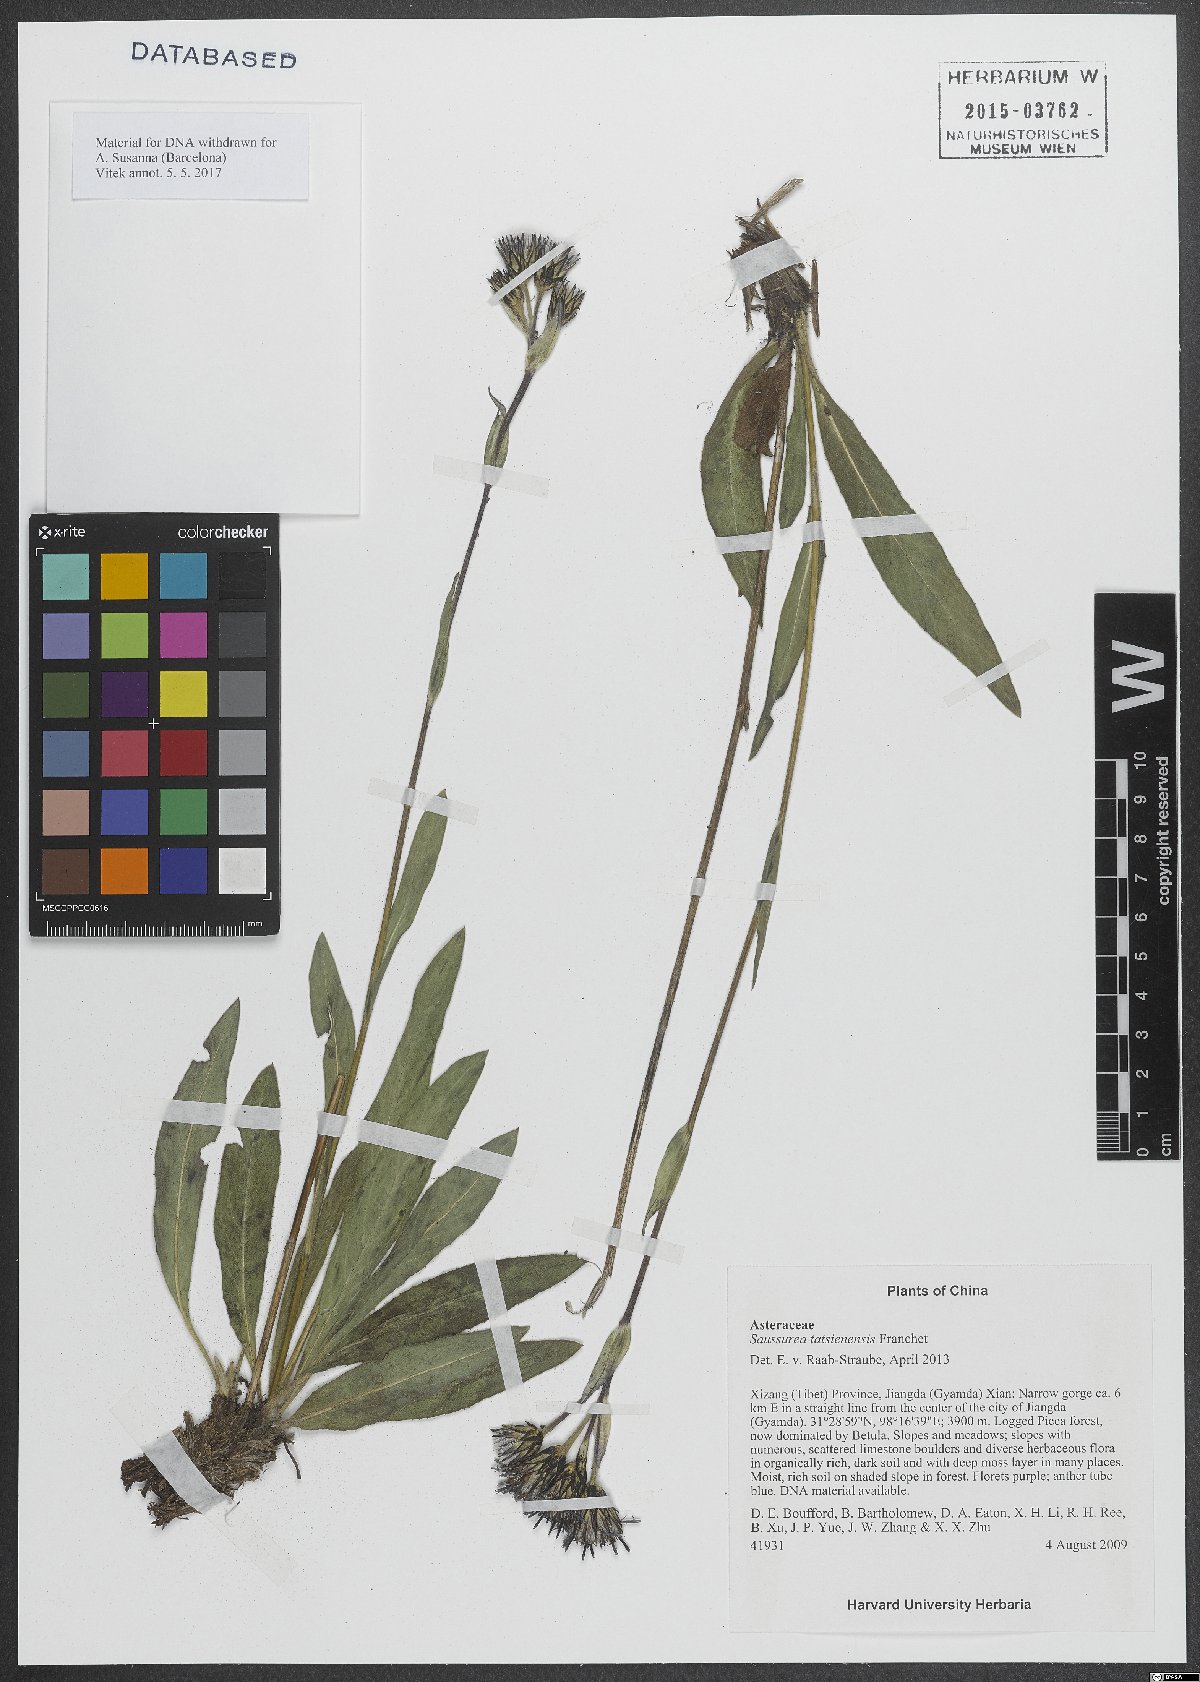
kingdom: Plantae
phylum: Tracheophyta
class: Magnoliopsida
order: Asterales
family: Asteraceae
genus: Saussurea
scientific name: Saussurea tatsienensis
